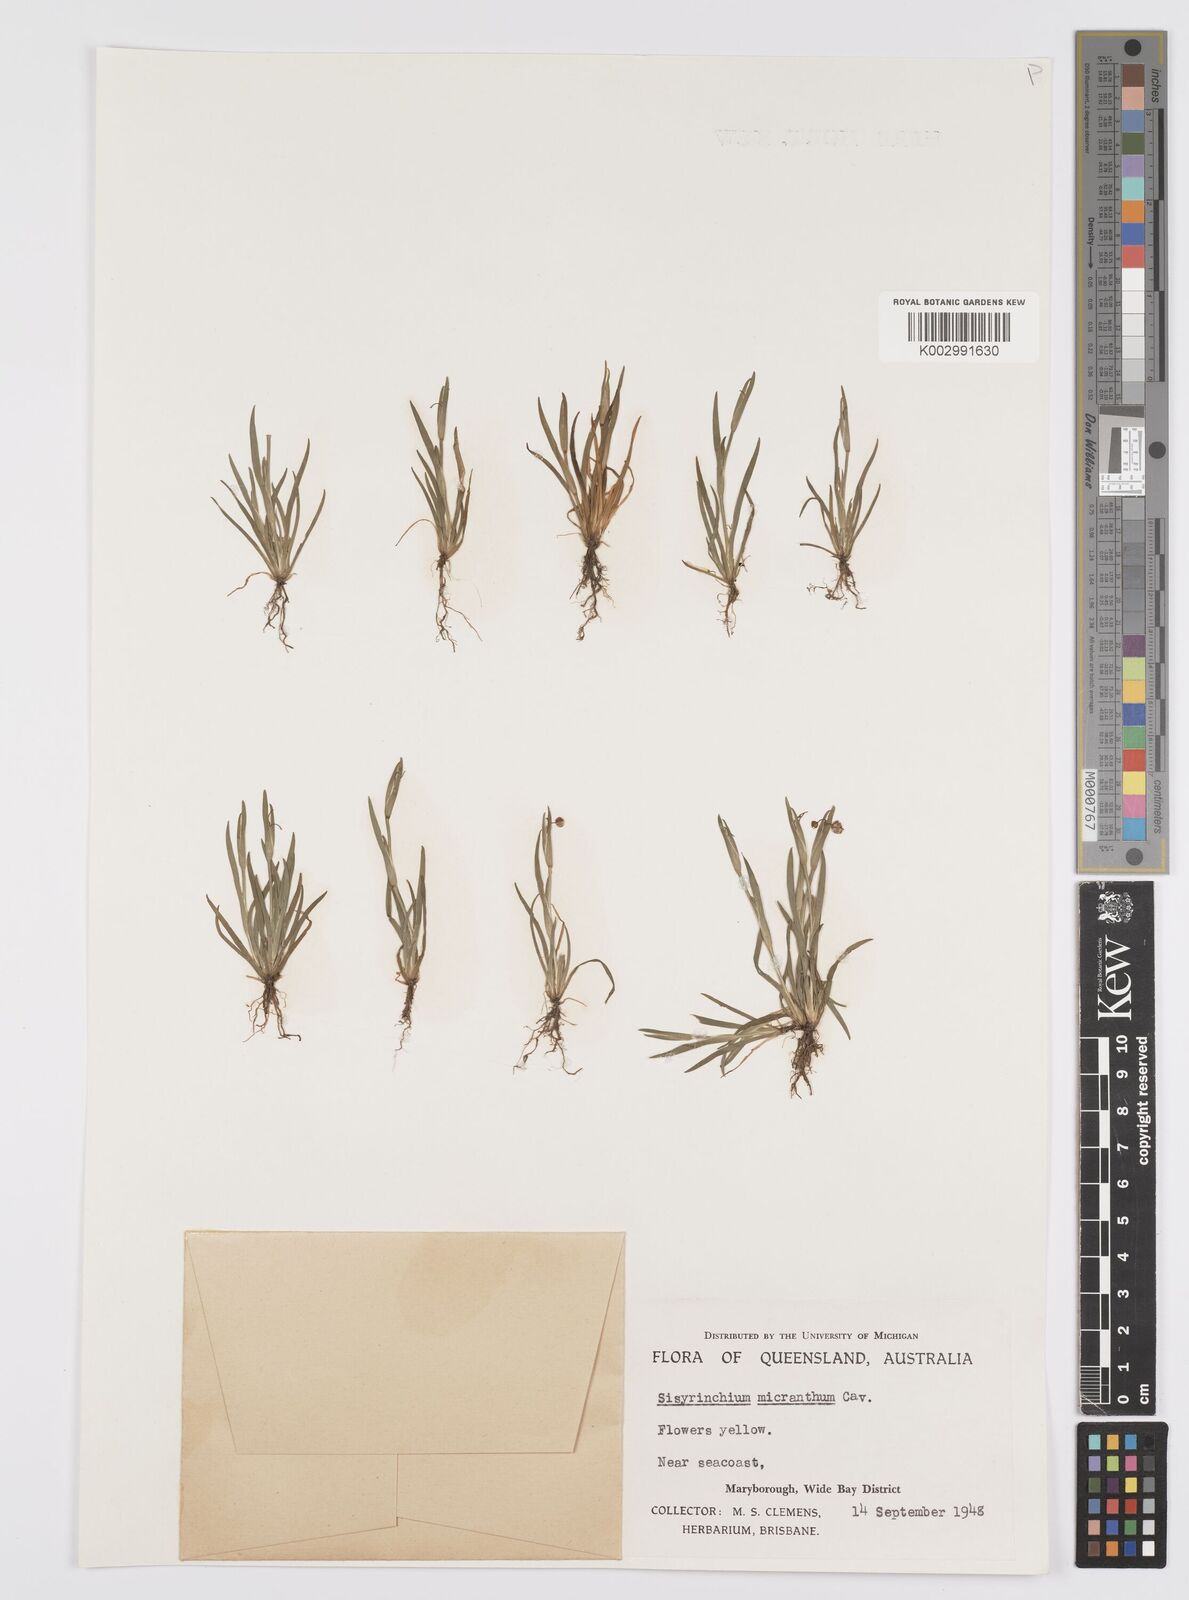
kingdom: Plantae
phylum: Tracheophyta
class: Liliopsida
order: Asparagales
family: Iridaceae
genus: Sisyrinchium
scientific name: Sisyrinchium micranthum
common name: Bermuda pigroot
